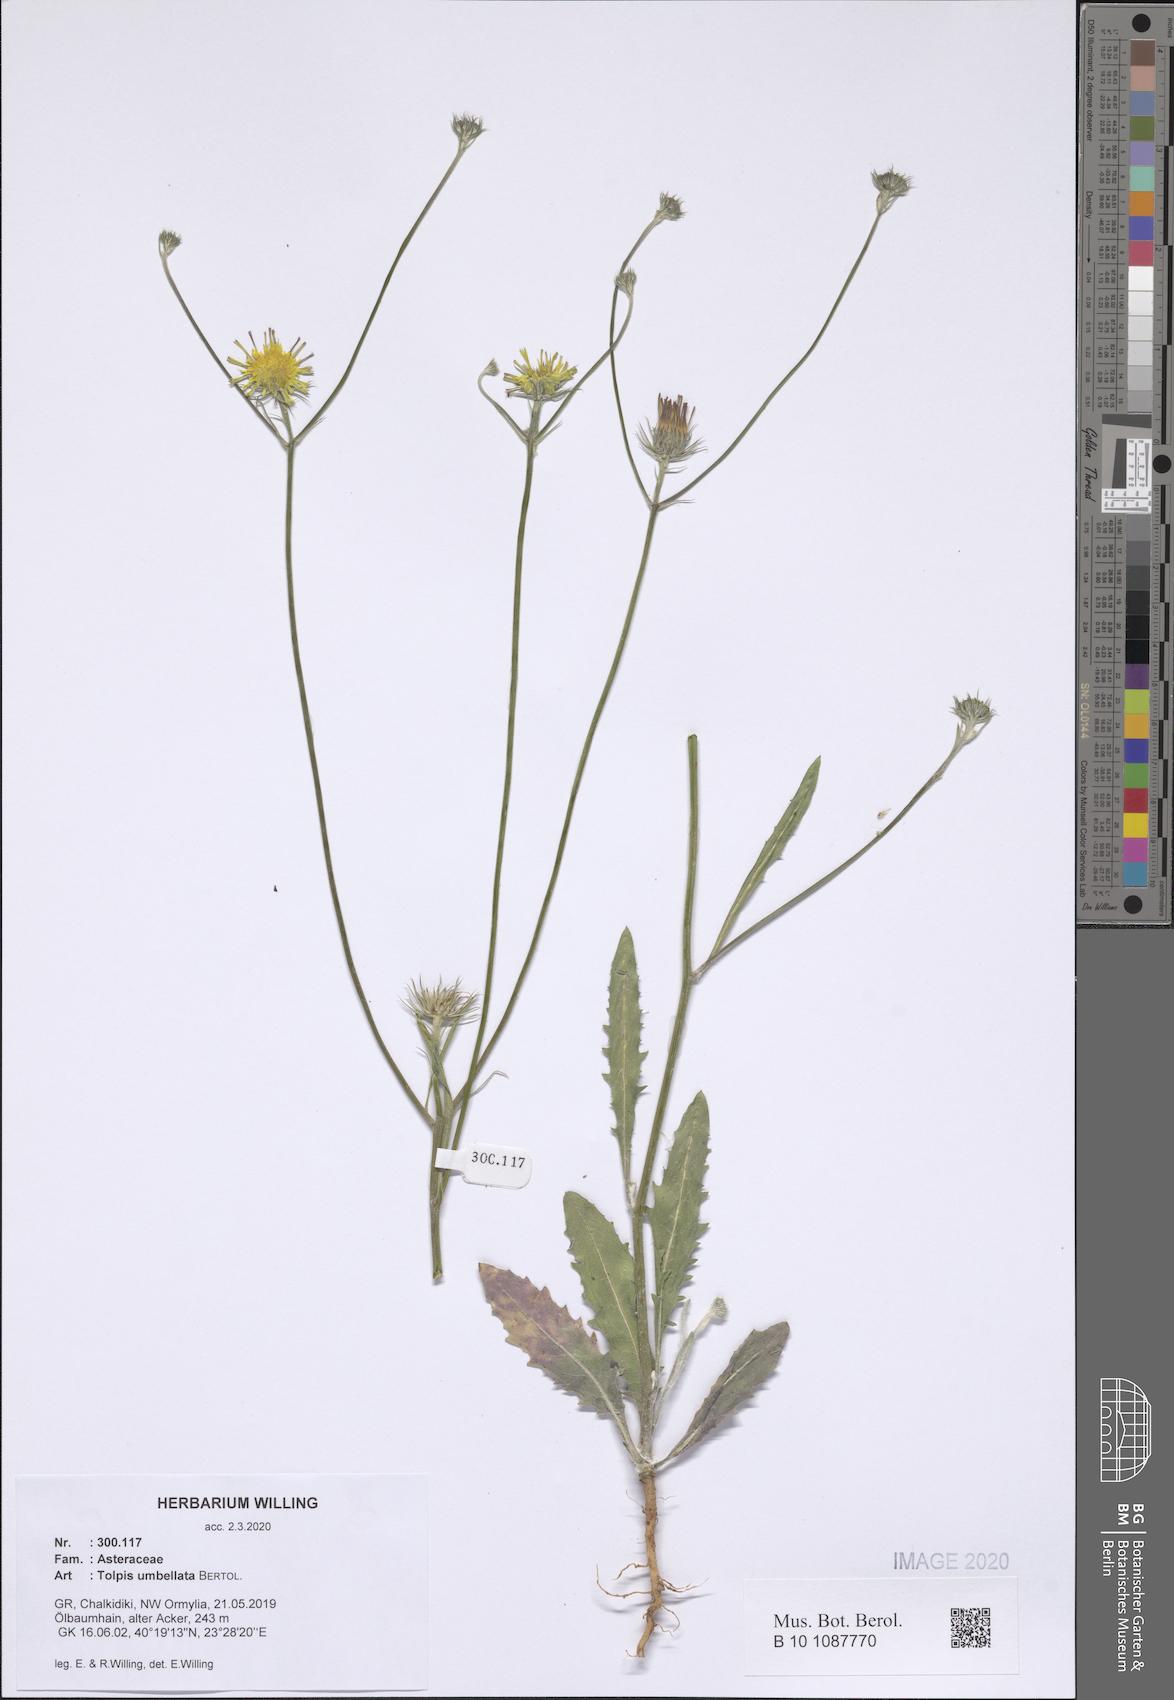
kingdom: Plantae
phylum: Tracheophyta
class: Magnoliopsida
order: Asterales
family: Asteraceae
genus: Tolpis
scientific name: Tolpis umbellata
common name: Yellow hawkweed
